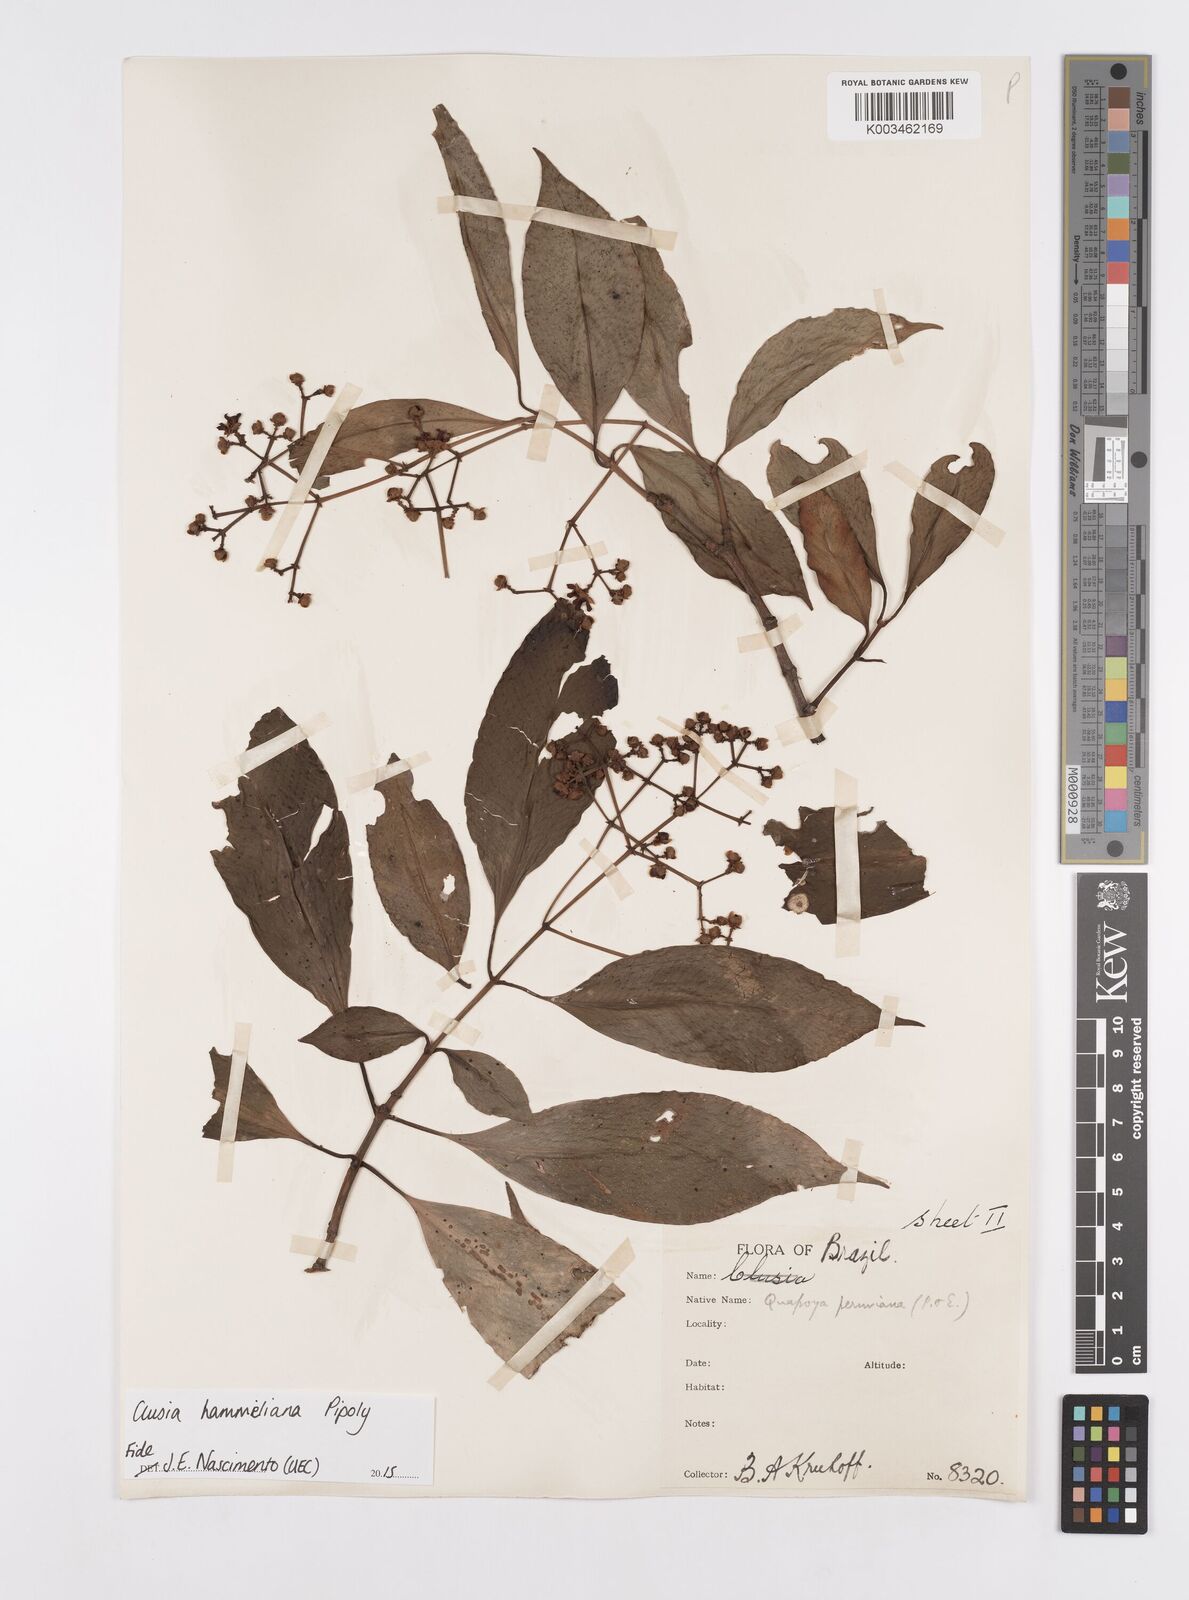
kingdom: Plantae
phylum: Tracheophyta
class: Magnoliopsida
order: Malpighiales
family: Clusiaceae
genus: Clusia
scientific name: Clusia hammeliana
